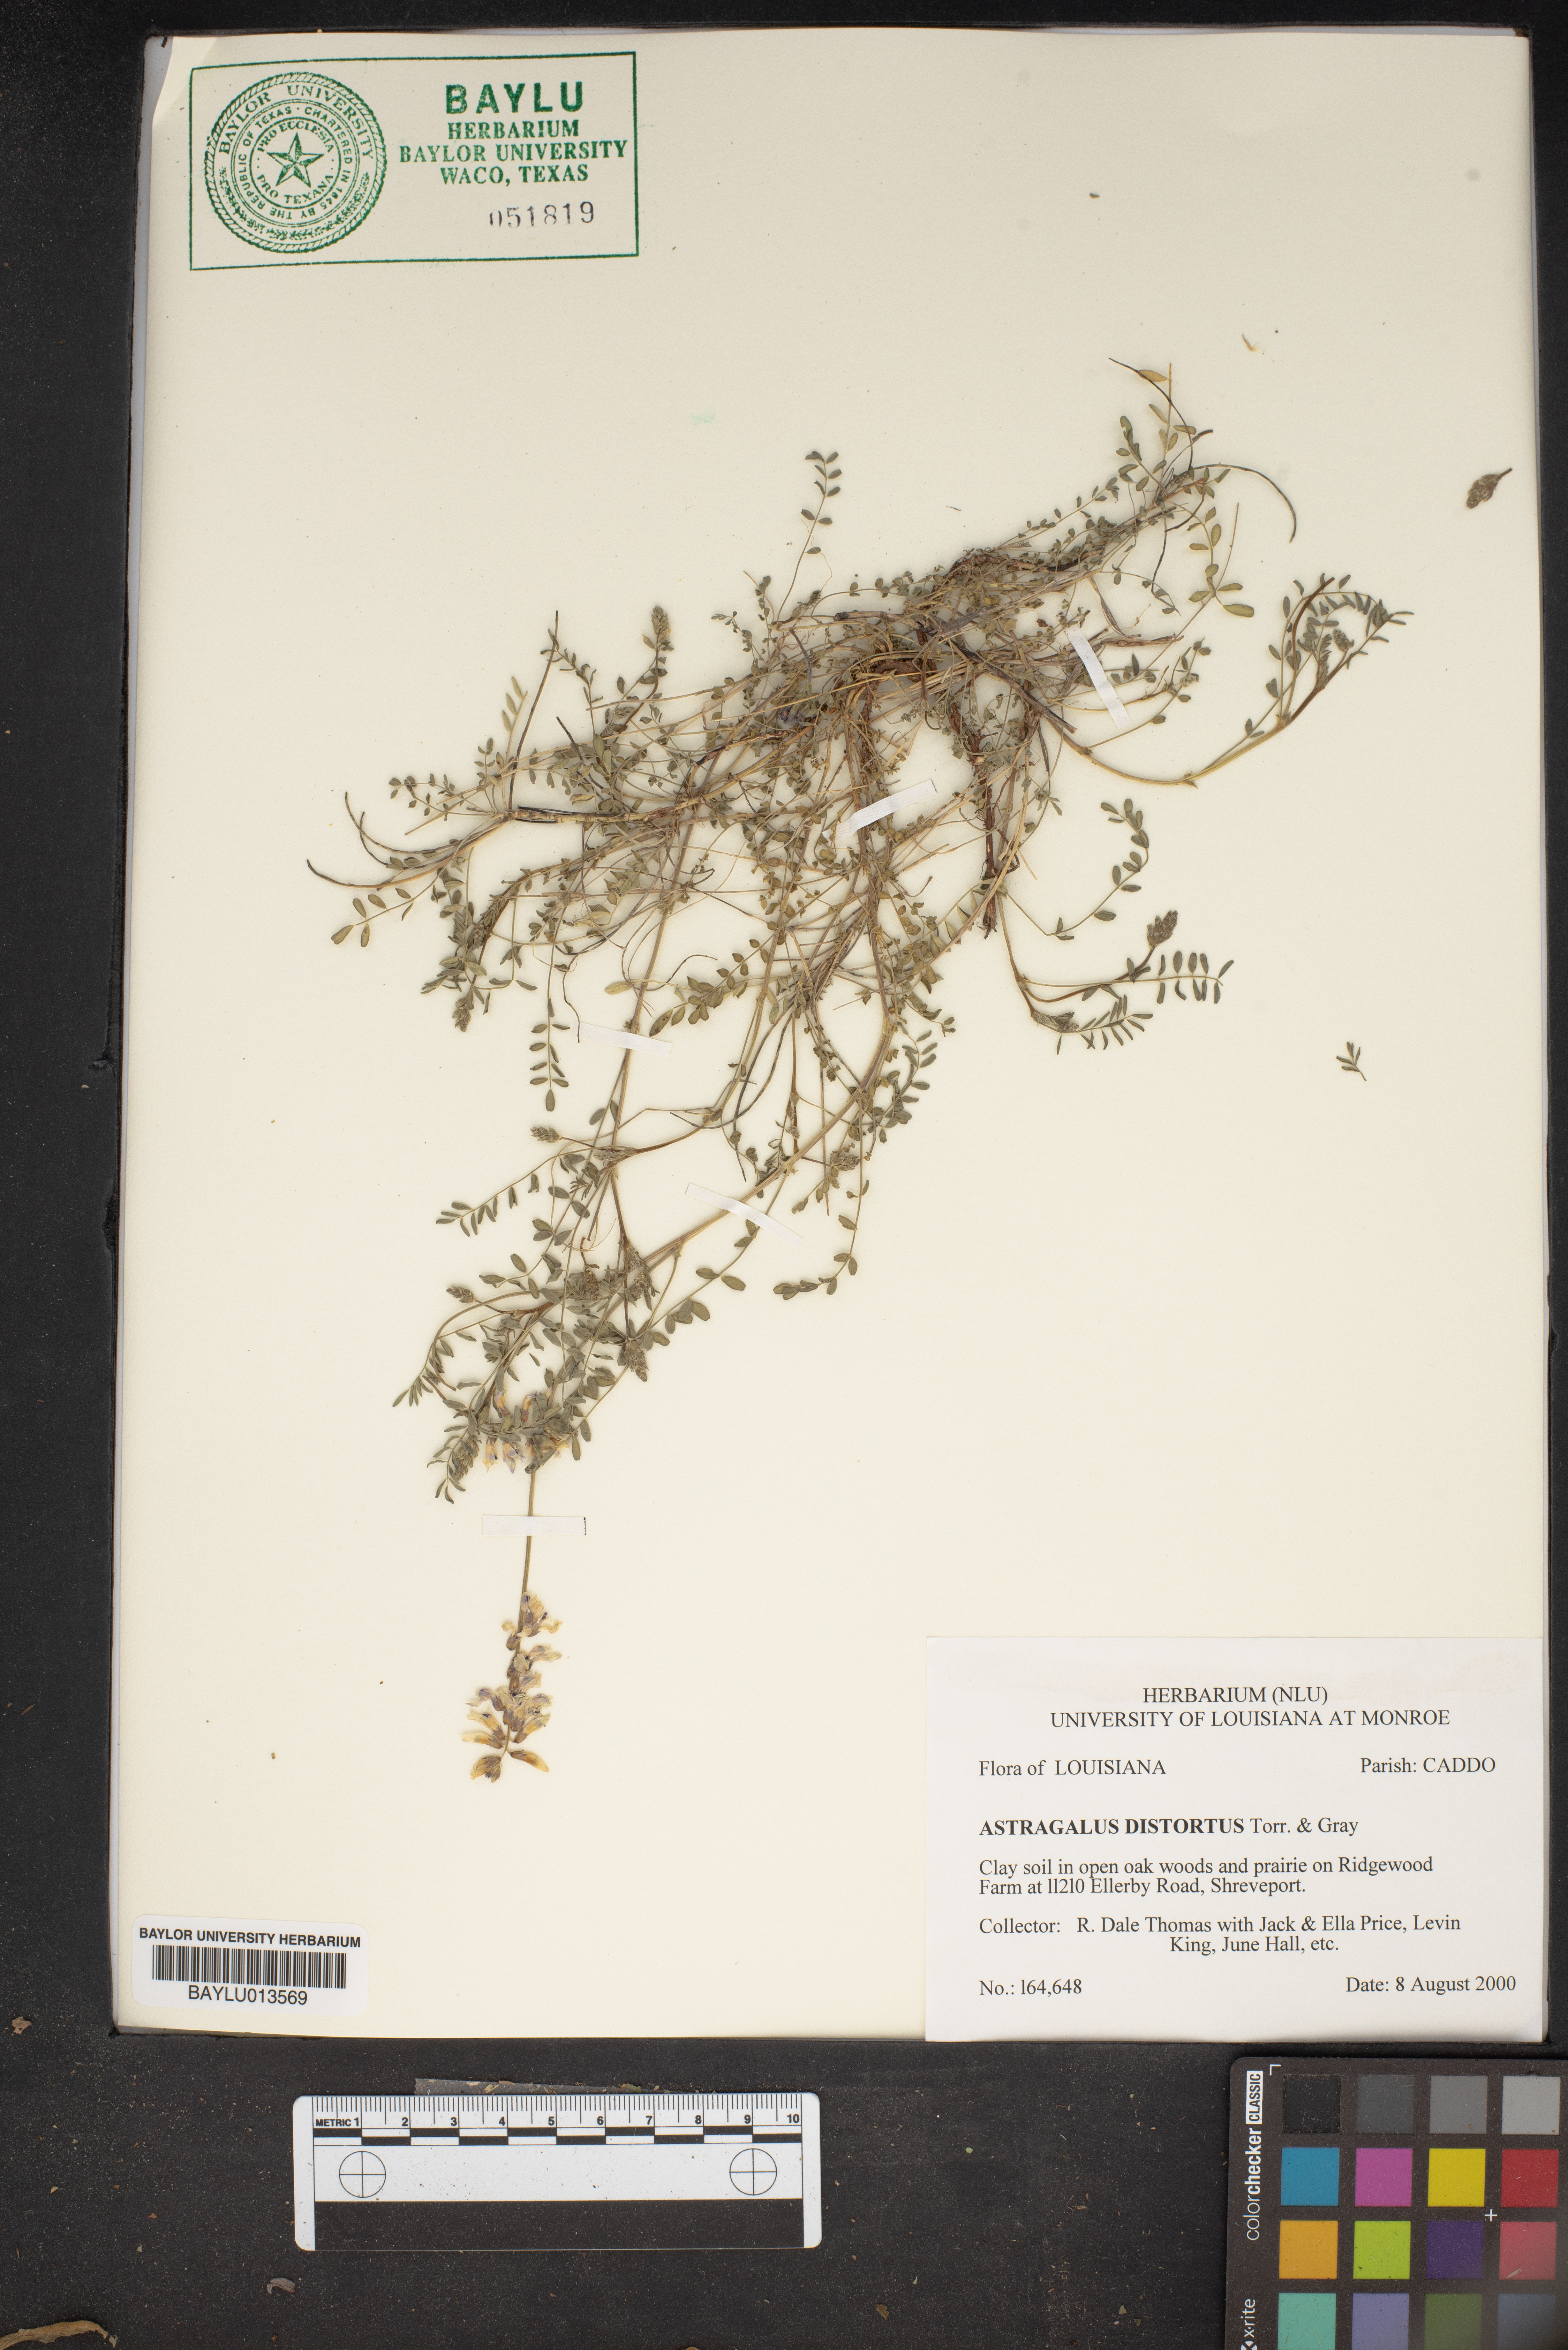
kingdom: Plantae
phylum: Tracheophyta
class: Magnoliopsida
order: Fabales
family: Fabaceae
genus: Astragalus
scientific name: Astragalus distortus
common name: Ozark milk-vetch
